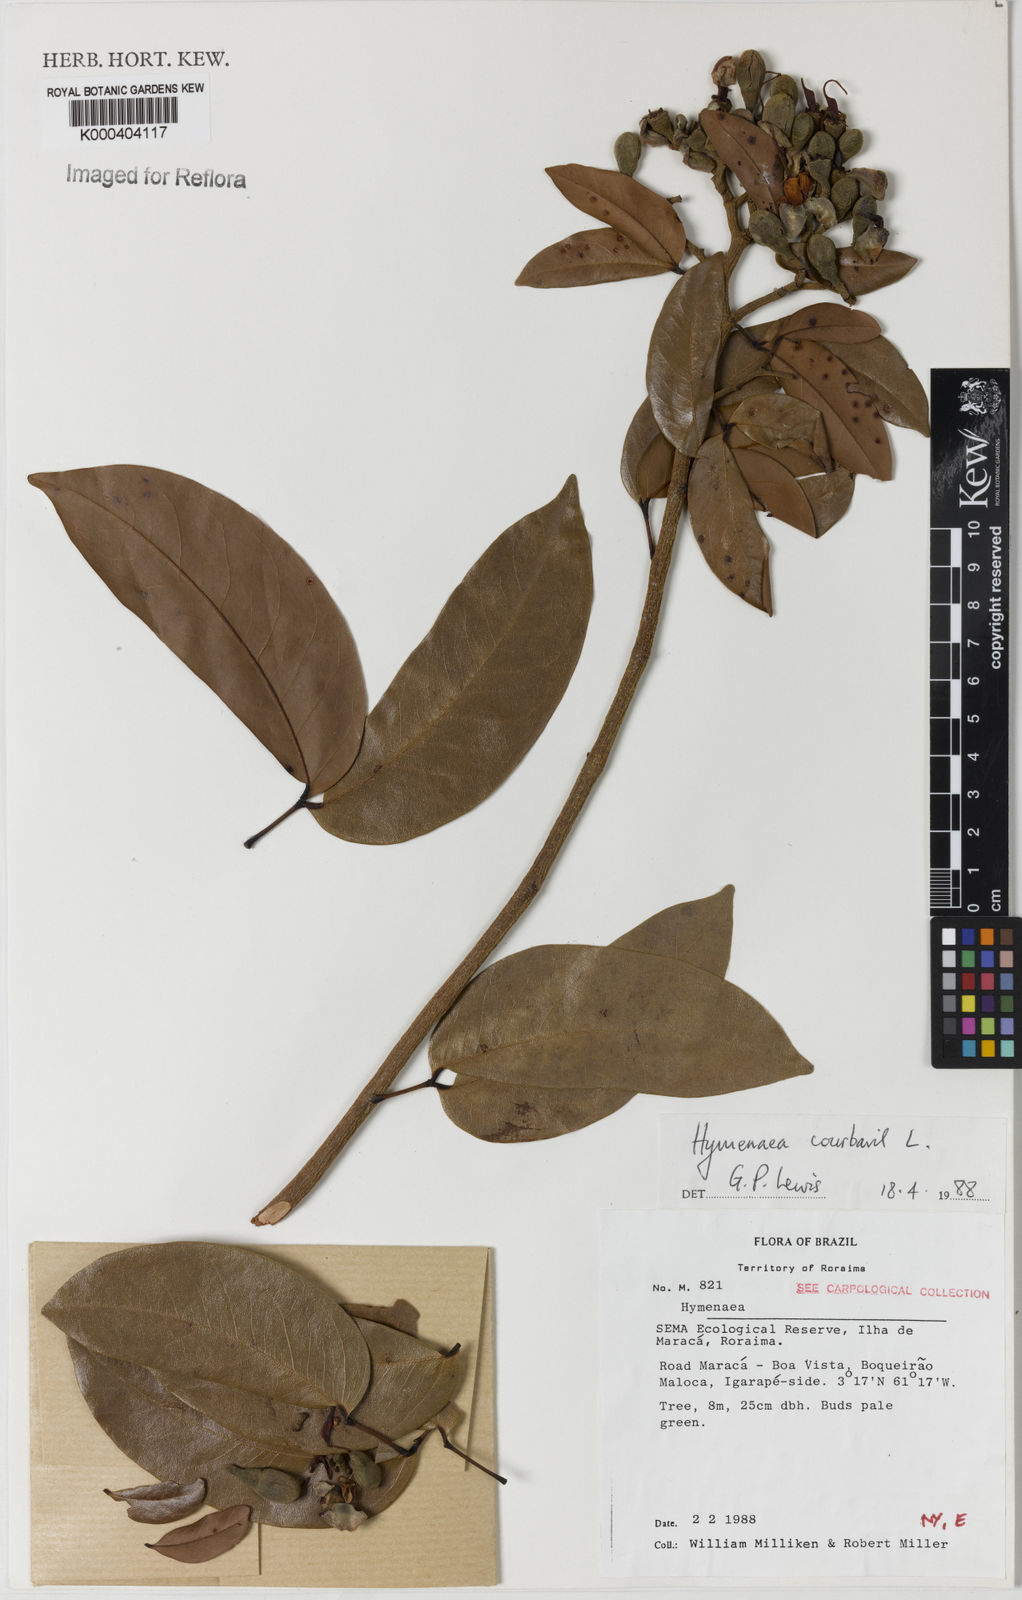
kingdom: Plantae
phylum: Tracheophyta
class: Magnoliopsida
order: Fabales
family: Fabaceae
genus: Hymenaea
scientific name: Hymenaea courbaril
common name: Brazilian copal
